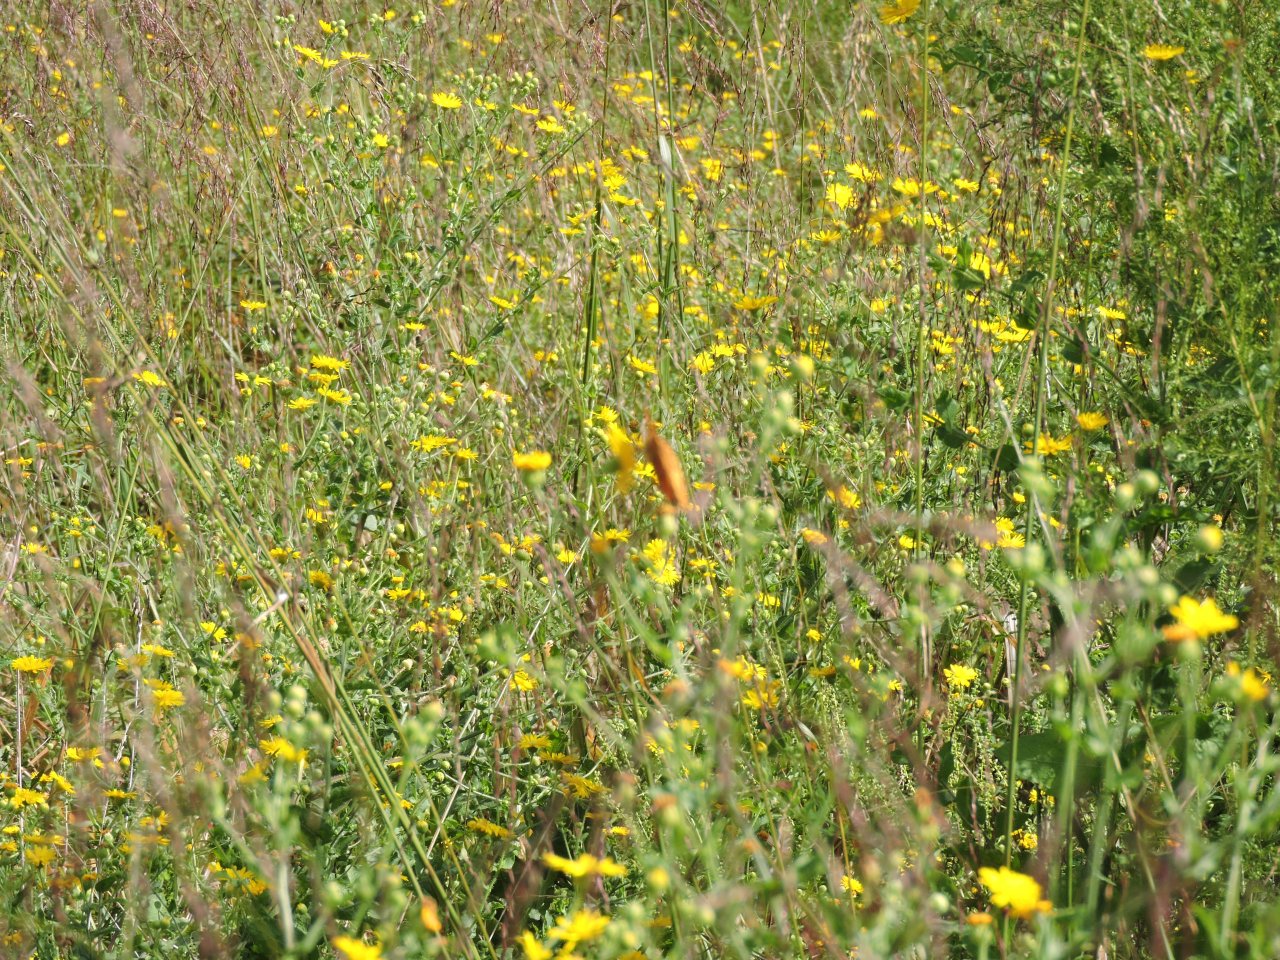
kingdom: Animalia
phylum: Arthropoda
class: Insecta
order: Lepidoptera
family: Nymphalidae
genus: Euptoieta
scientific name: Euptoieta claudia
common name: Variegated Fritillary
